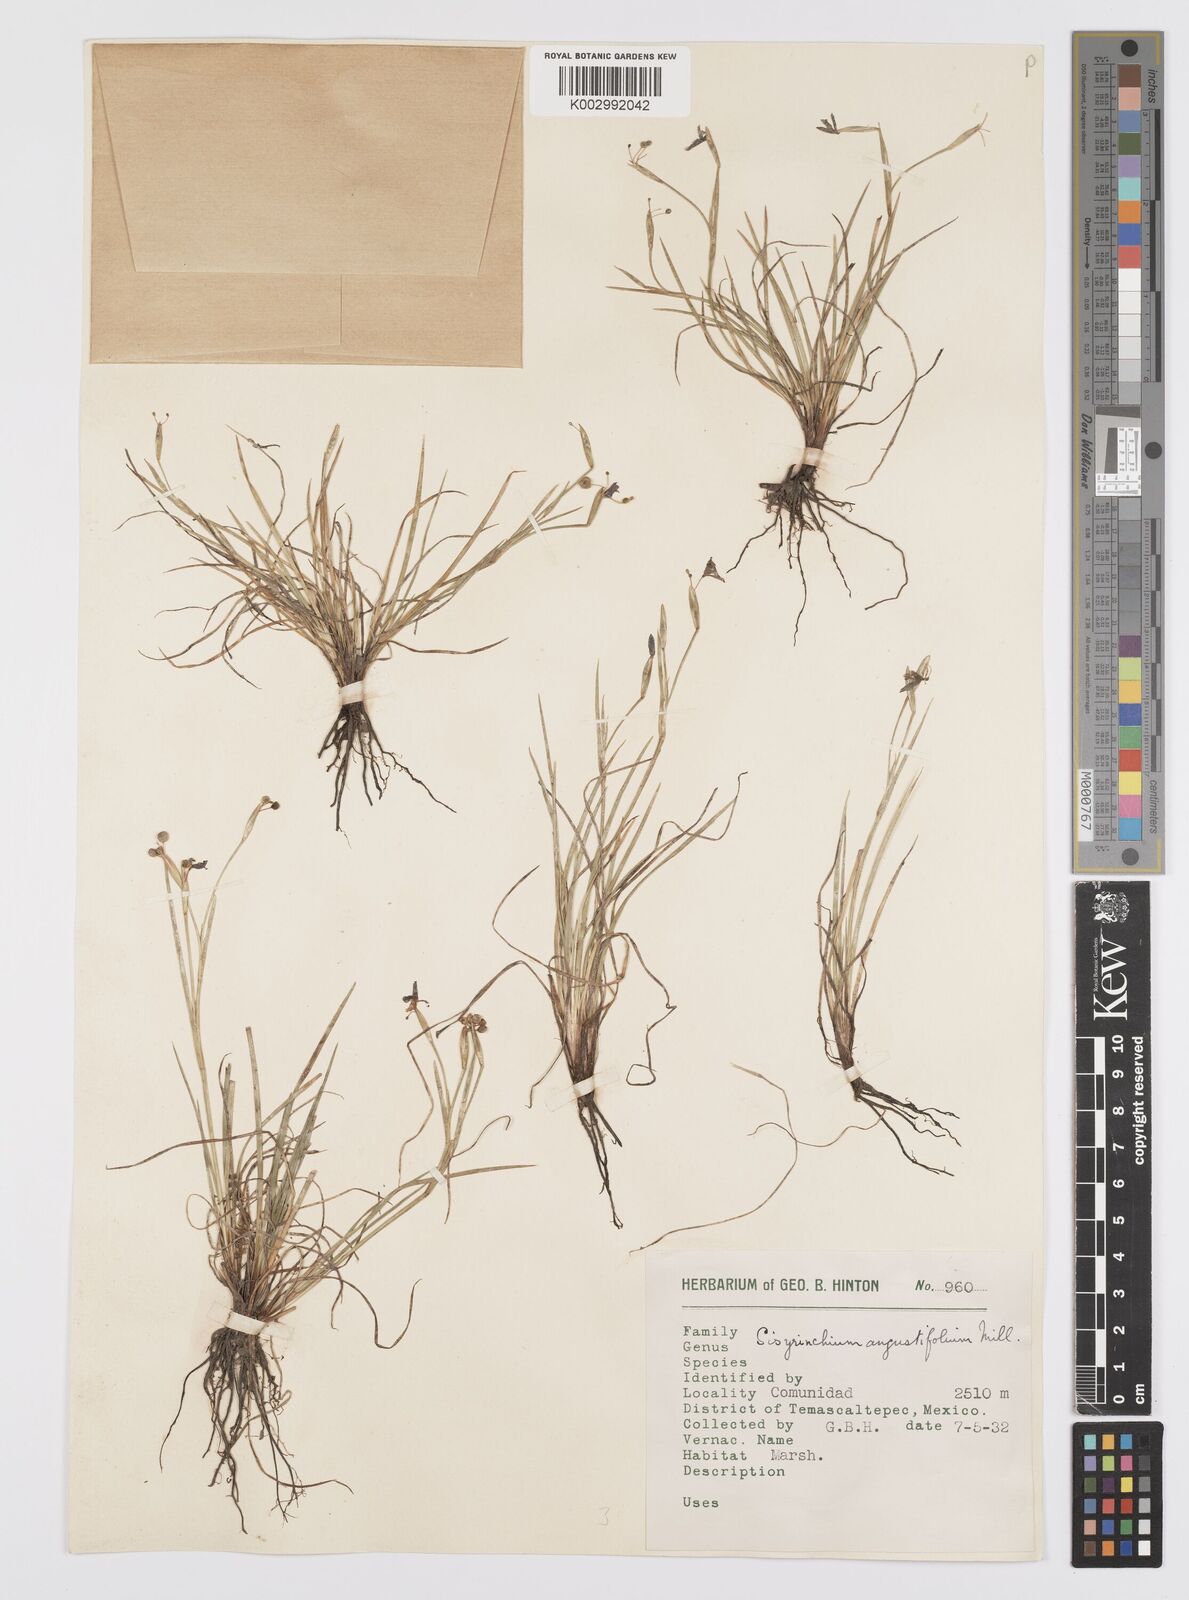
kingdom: Plantae
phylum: Tracheophyta
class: Liliopsida
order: Asparagales
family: Iridaceae
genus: Sisyrinchium
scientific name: Sisyrinchium angustifolium
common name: Narrow-leaf blue-eyed-grass
